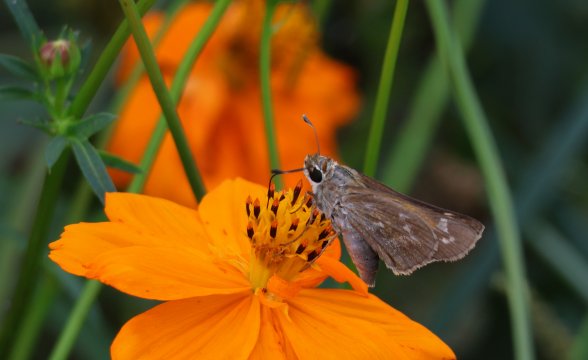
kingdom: Animalia
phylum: Arthropoda
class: Insecta
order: Lepidoptera
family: Hesperiidae
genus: Atalopedes
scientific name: Atalopedes campestris
